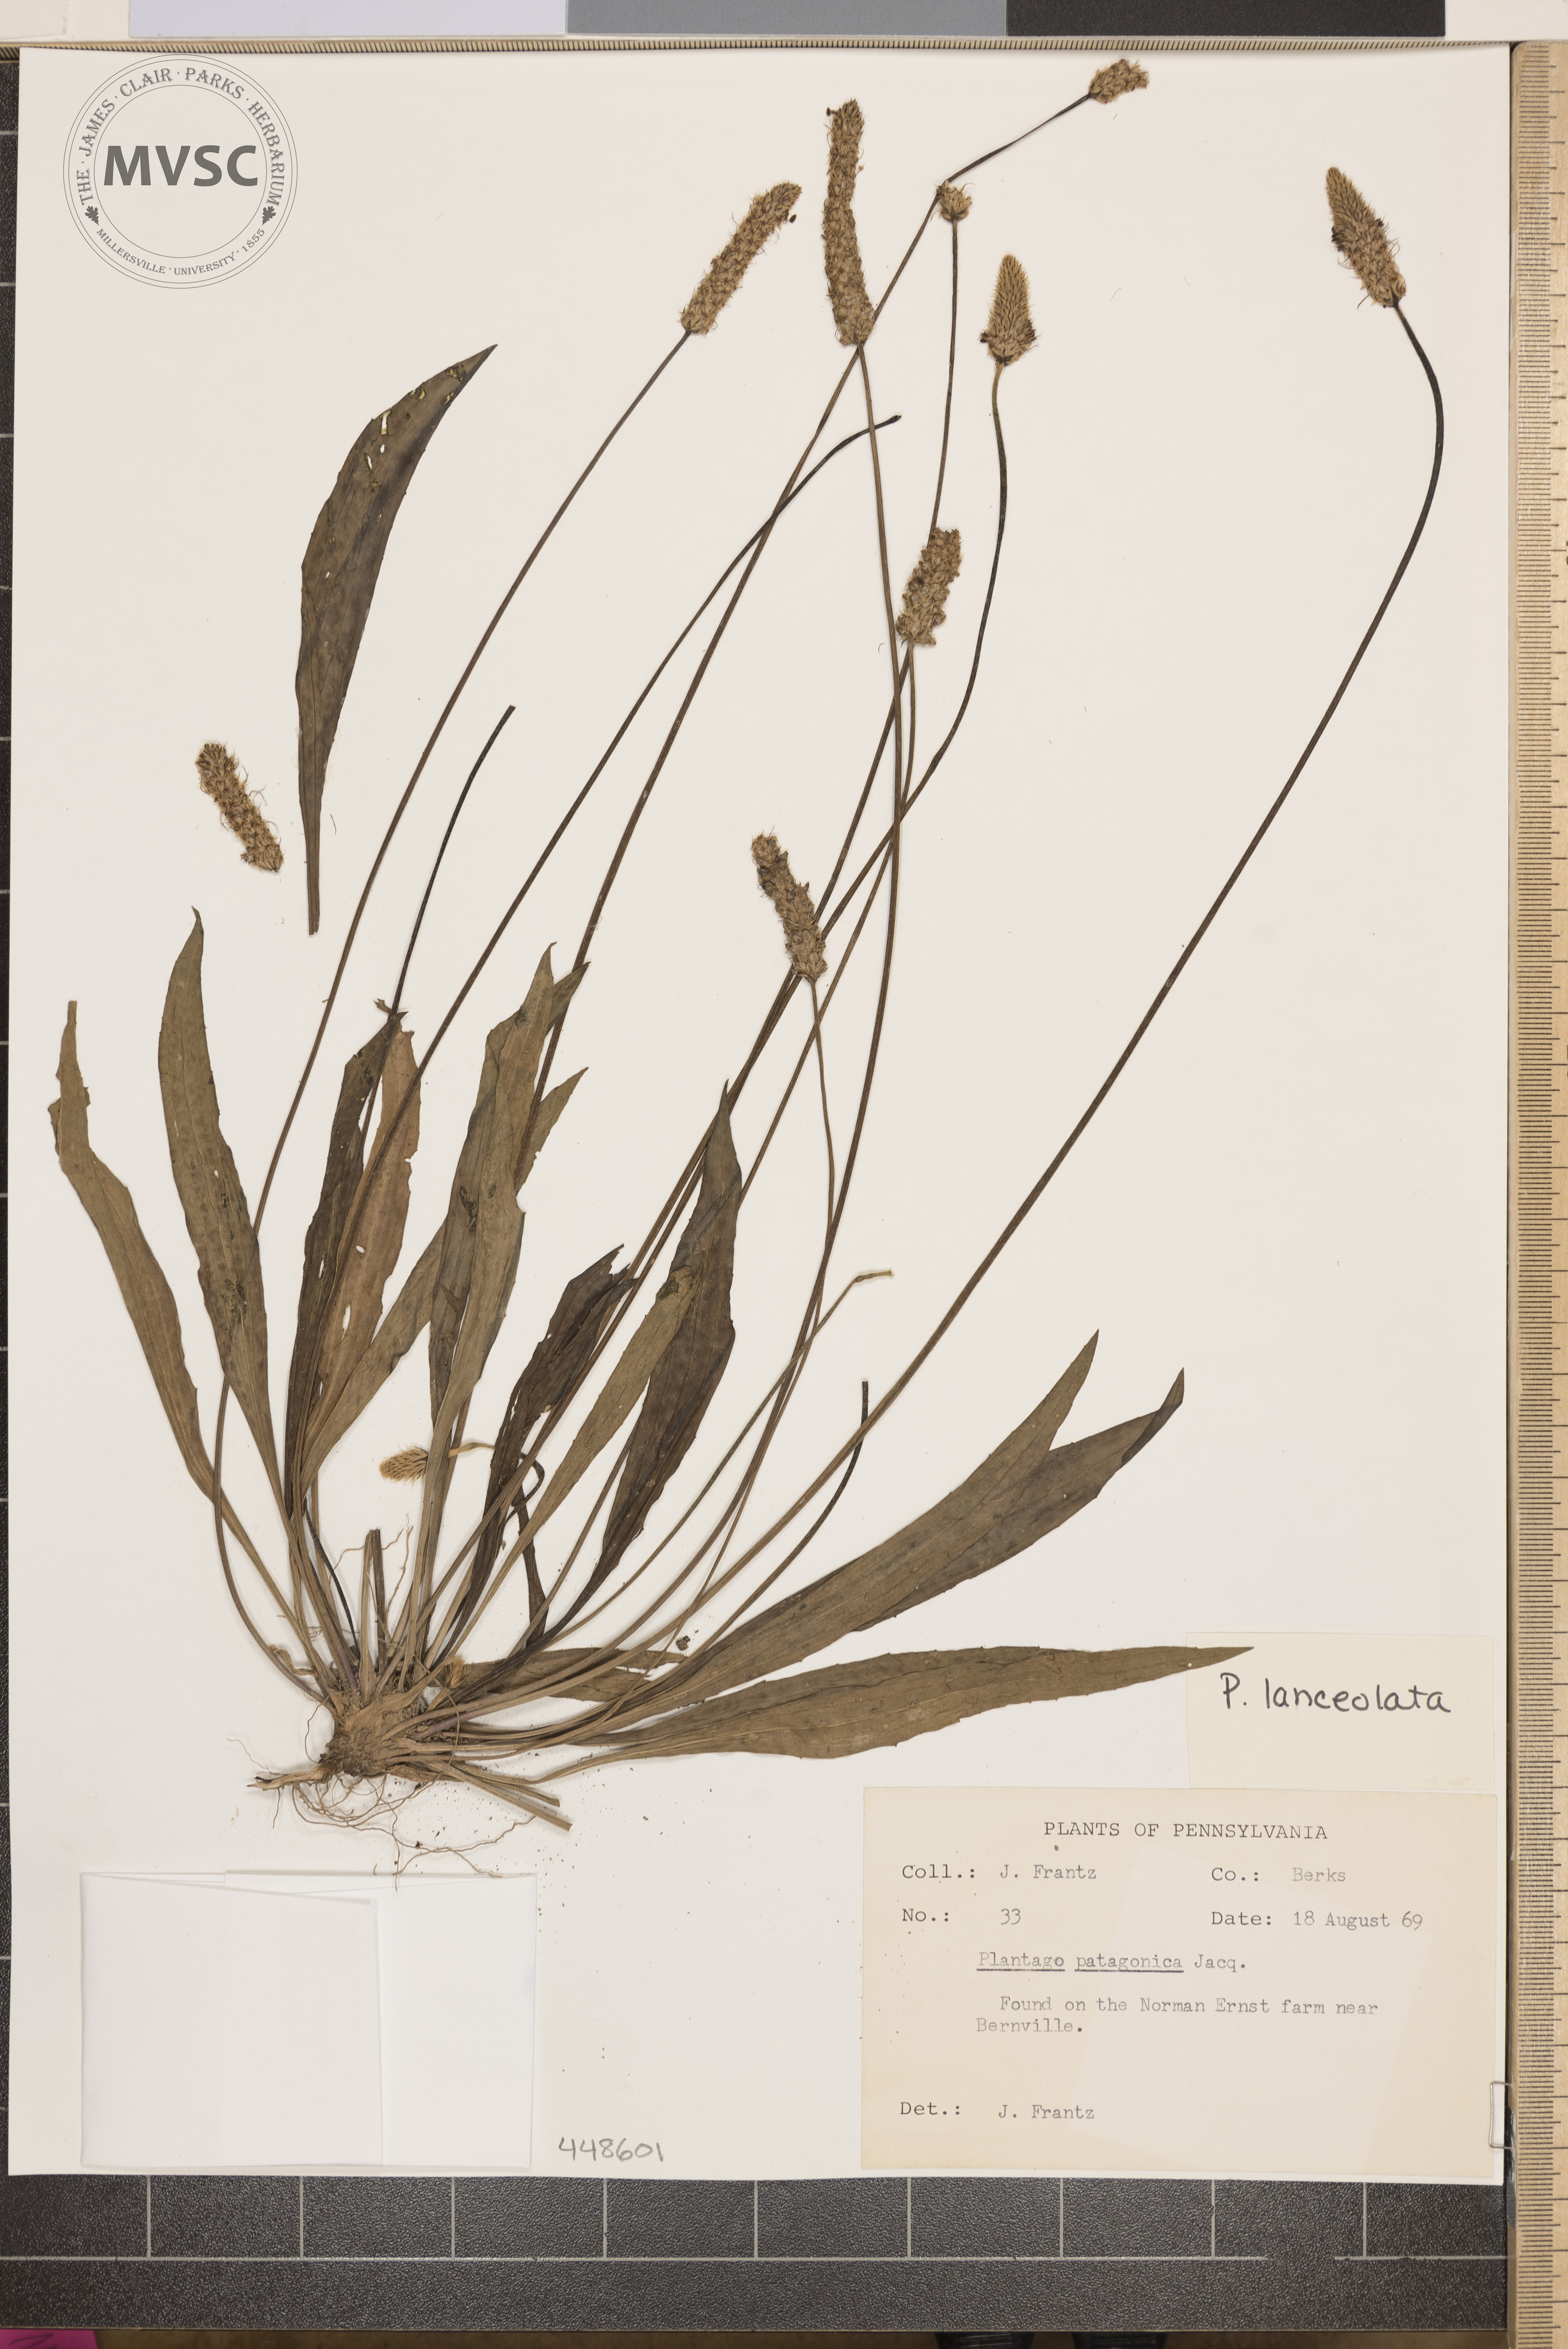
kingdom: Plantae
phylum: Tracheophyta
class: Magnoliopsida
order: Lamiales
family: Plantaginaceae
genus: Plantago
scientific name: Plantago lanceolata
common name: Ribwort plantain
